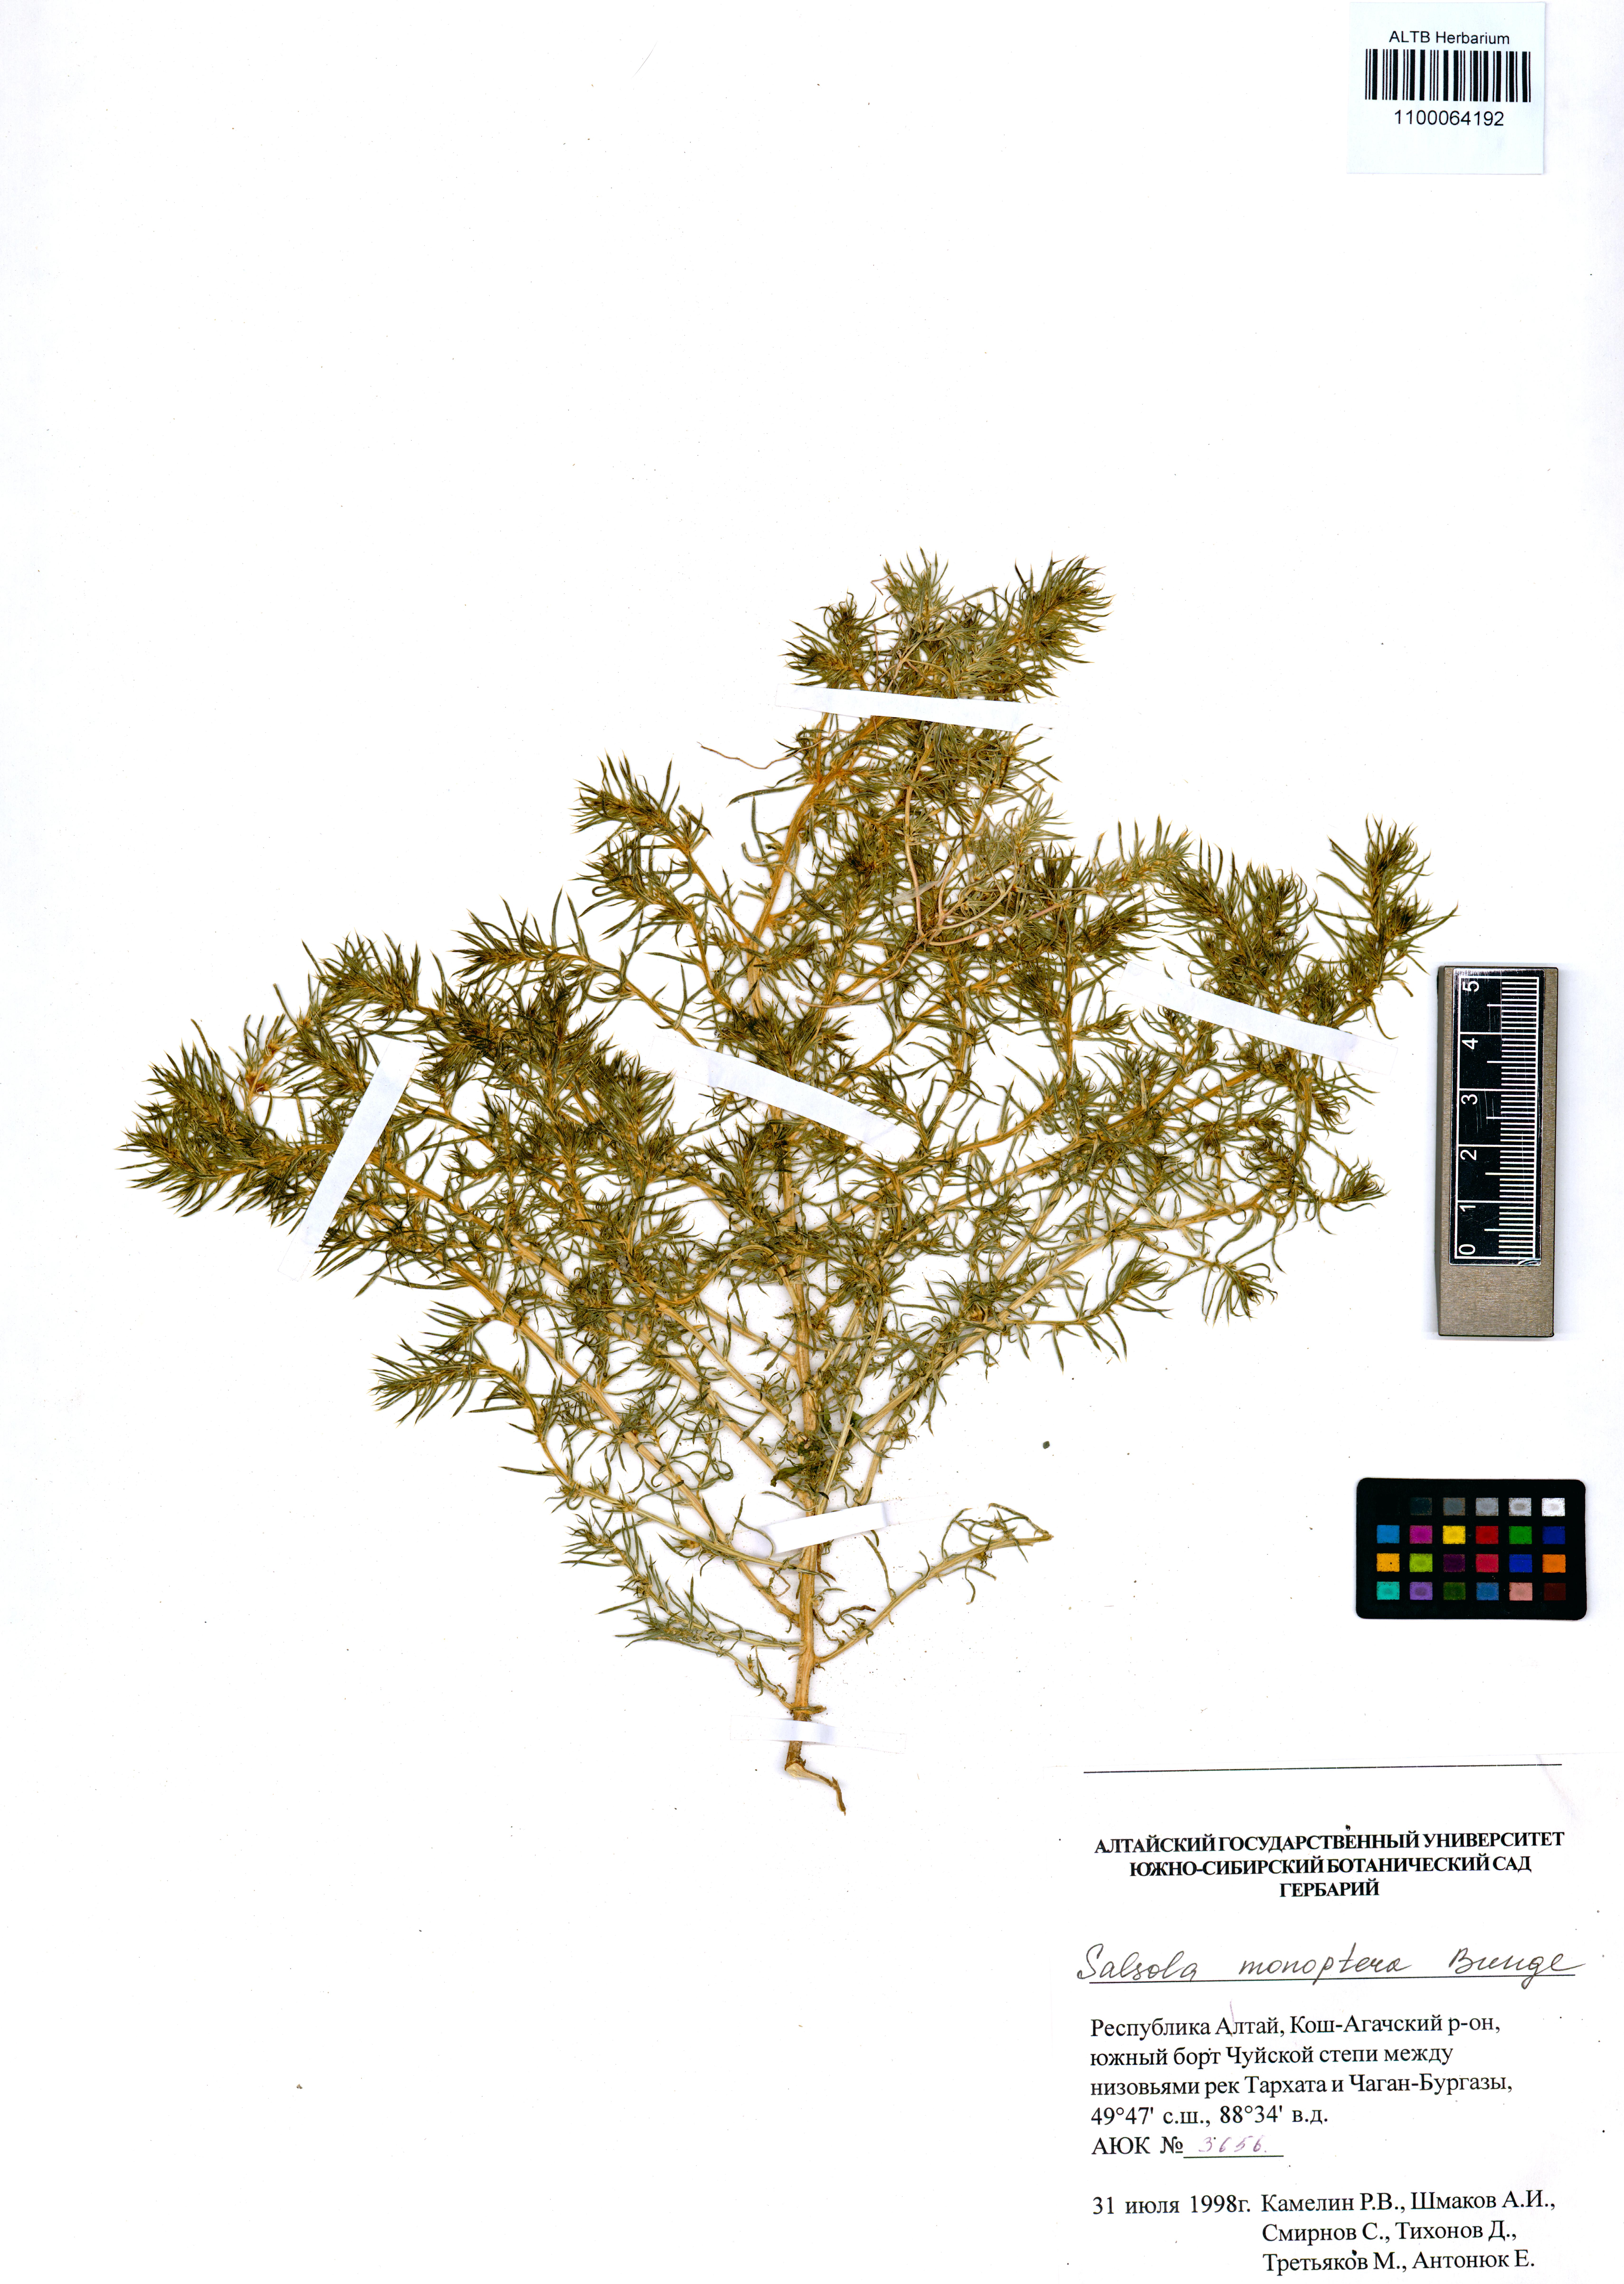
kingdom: Plantae
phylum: Tracheophyta
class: Magnoliopsida
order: Caryophyllales
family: Amaranthaceae
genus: Salsola
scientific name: Salsola monoptera
